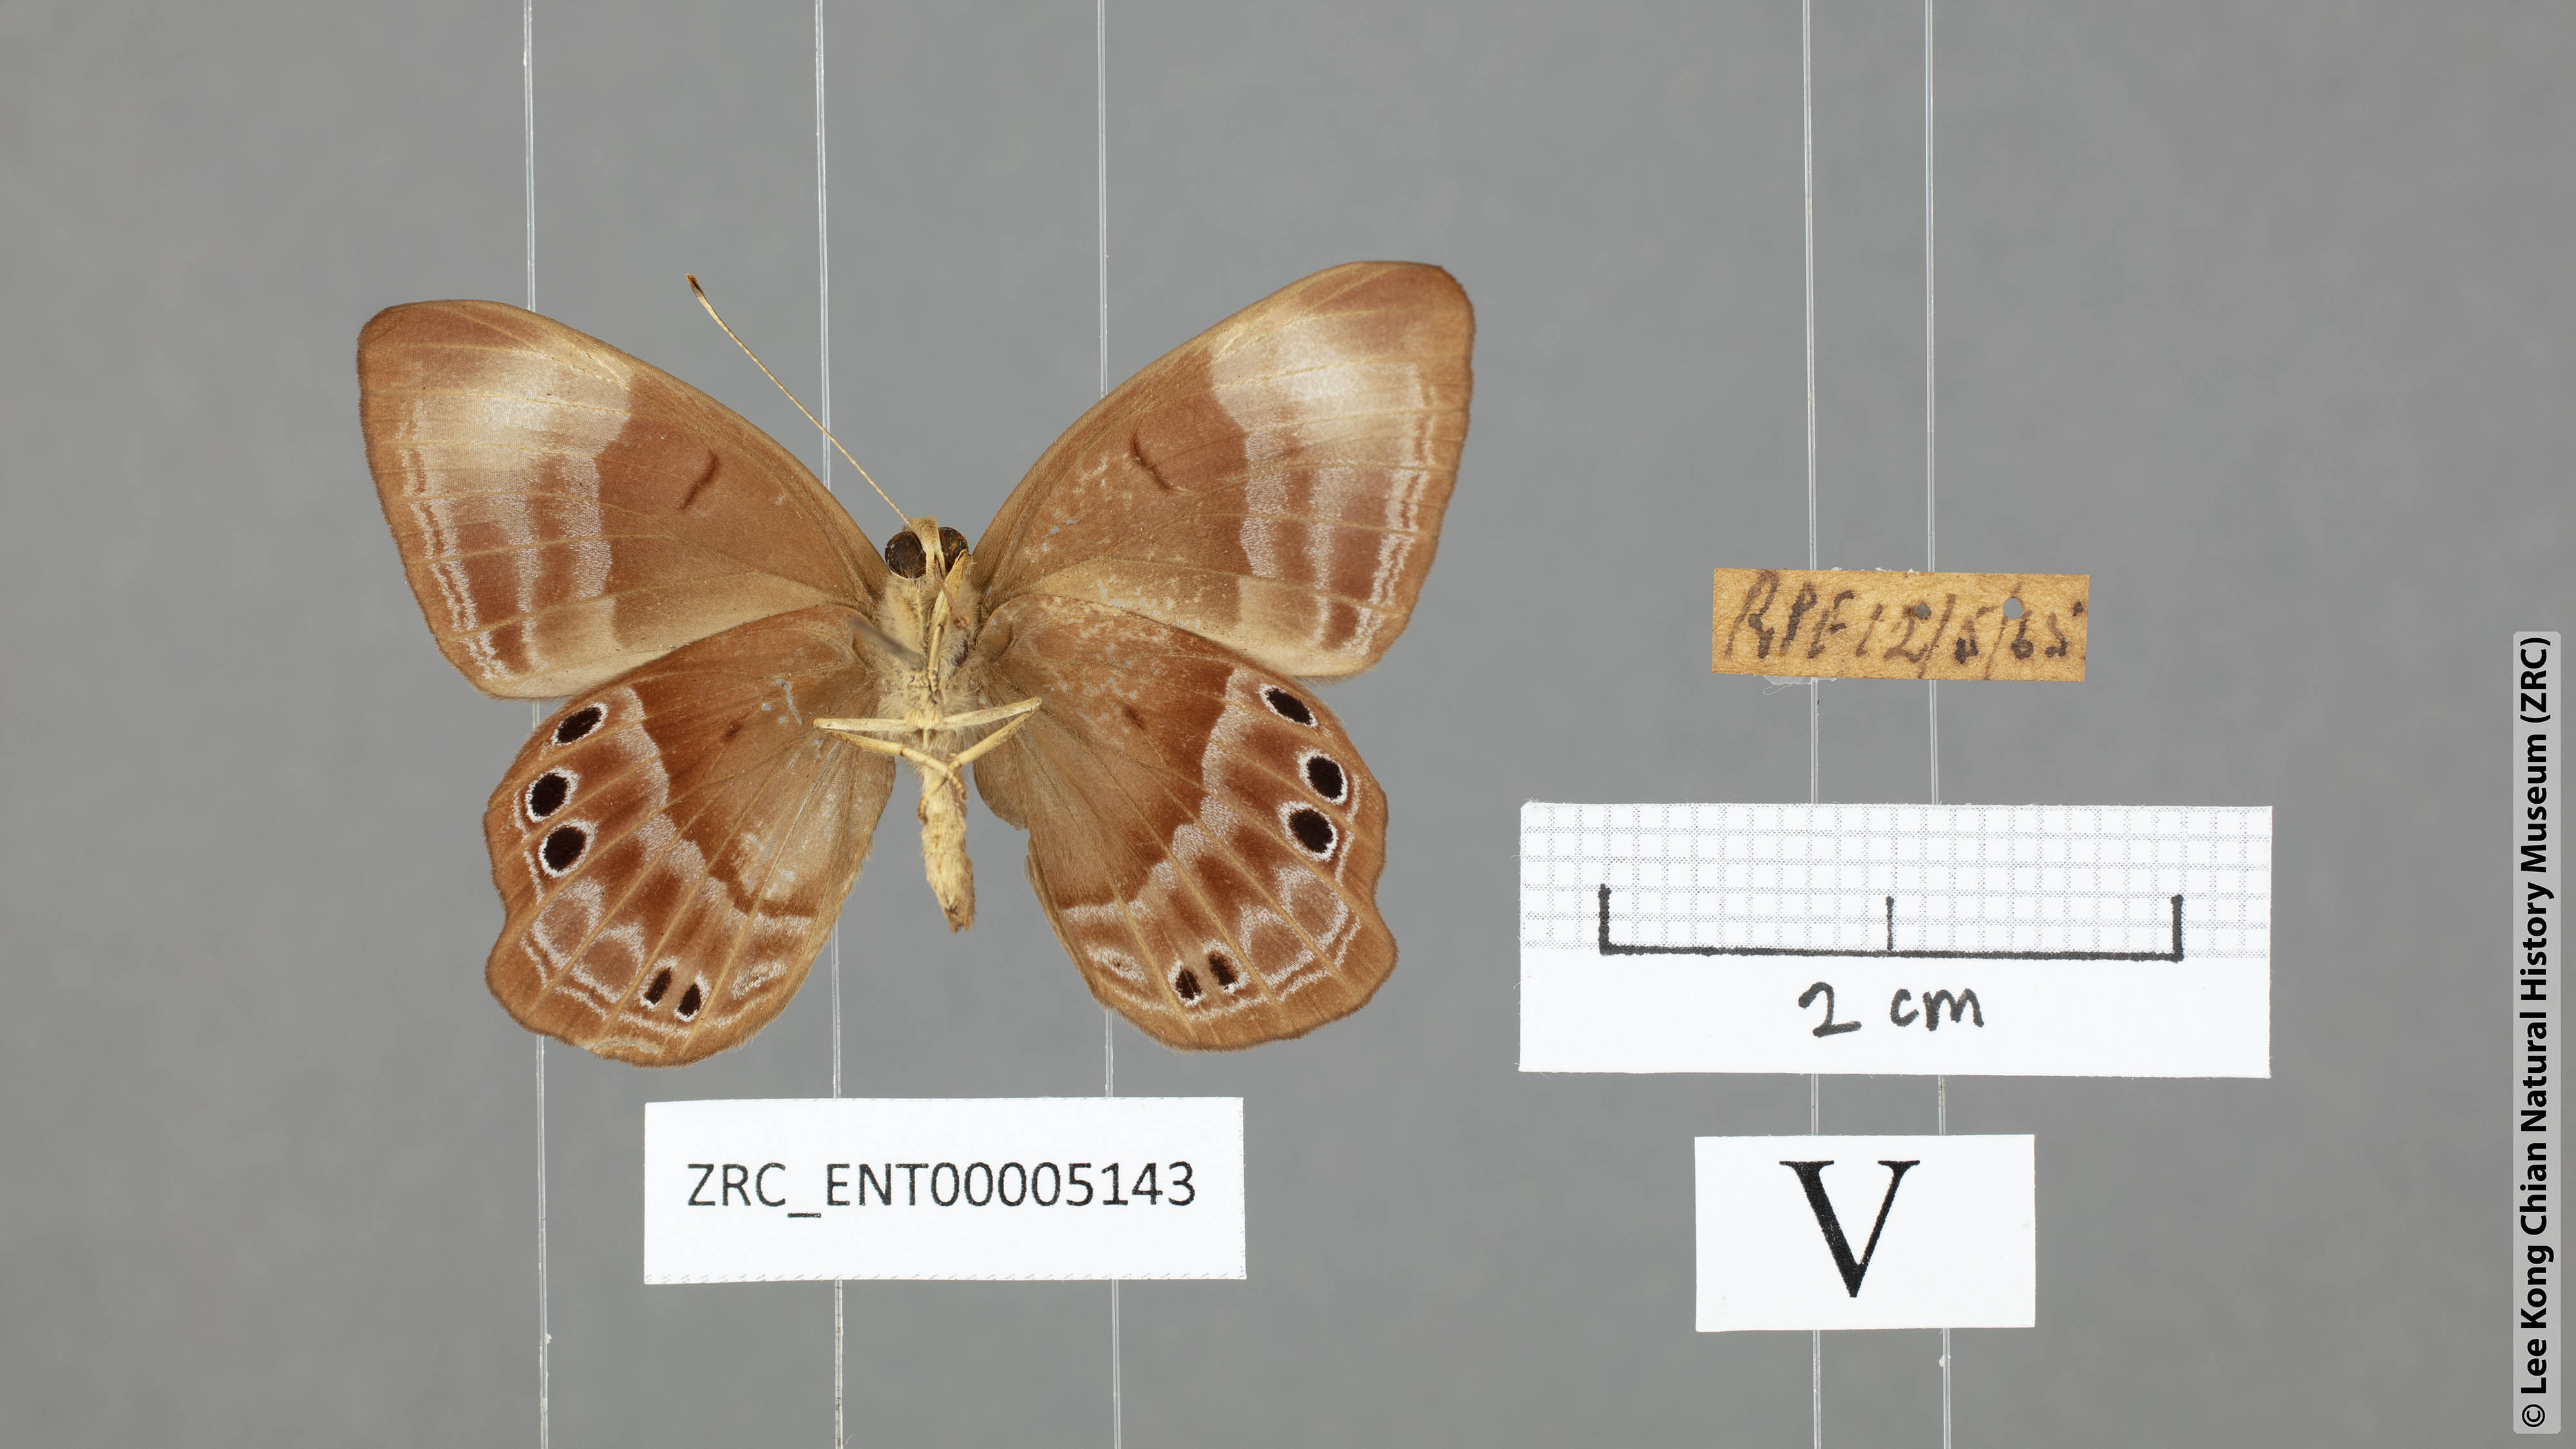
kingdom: Animalia
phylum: Arthropoda
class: Insecta
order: Lepidoptera
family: Lycaenidae
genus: Abisara
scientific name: Abisara geza
